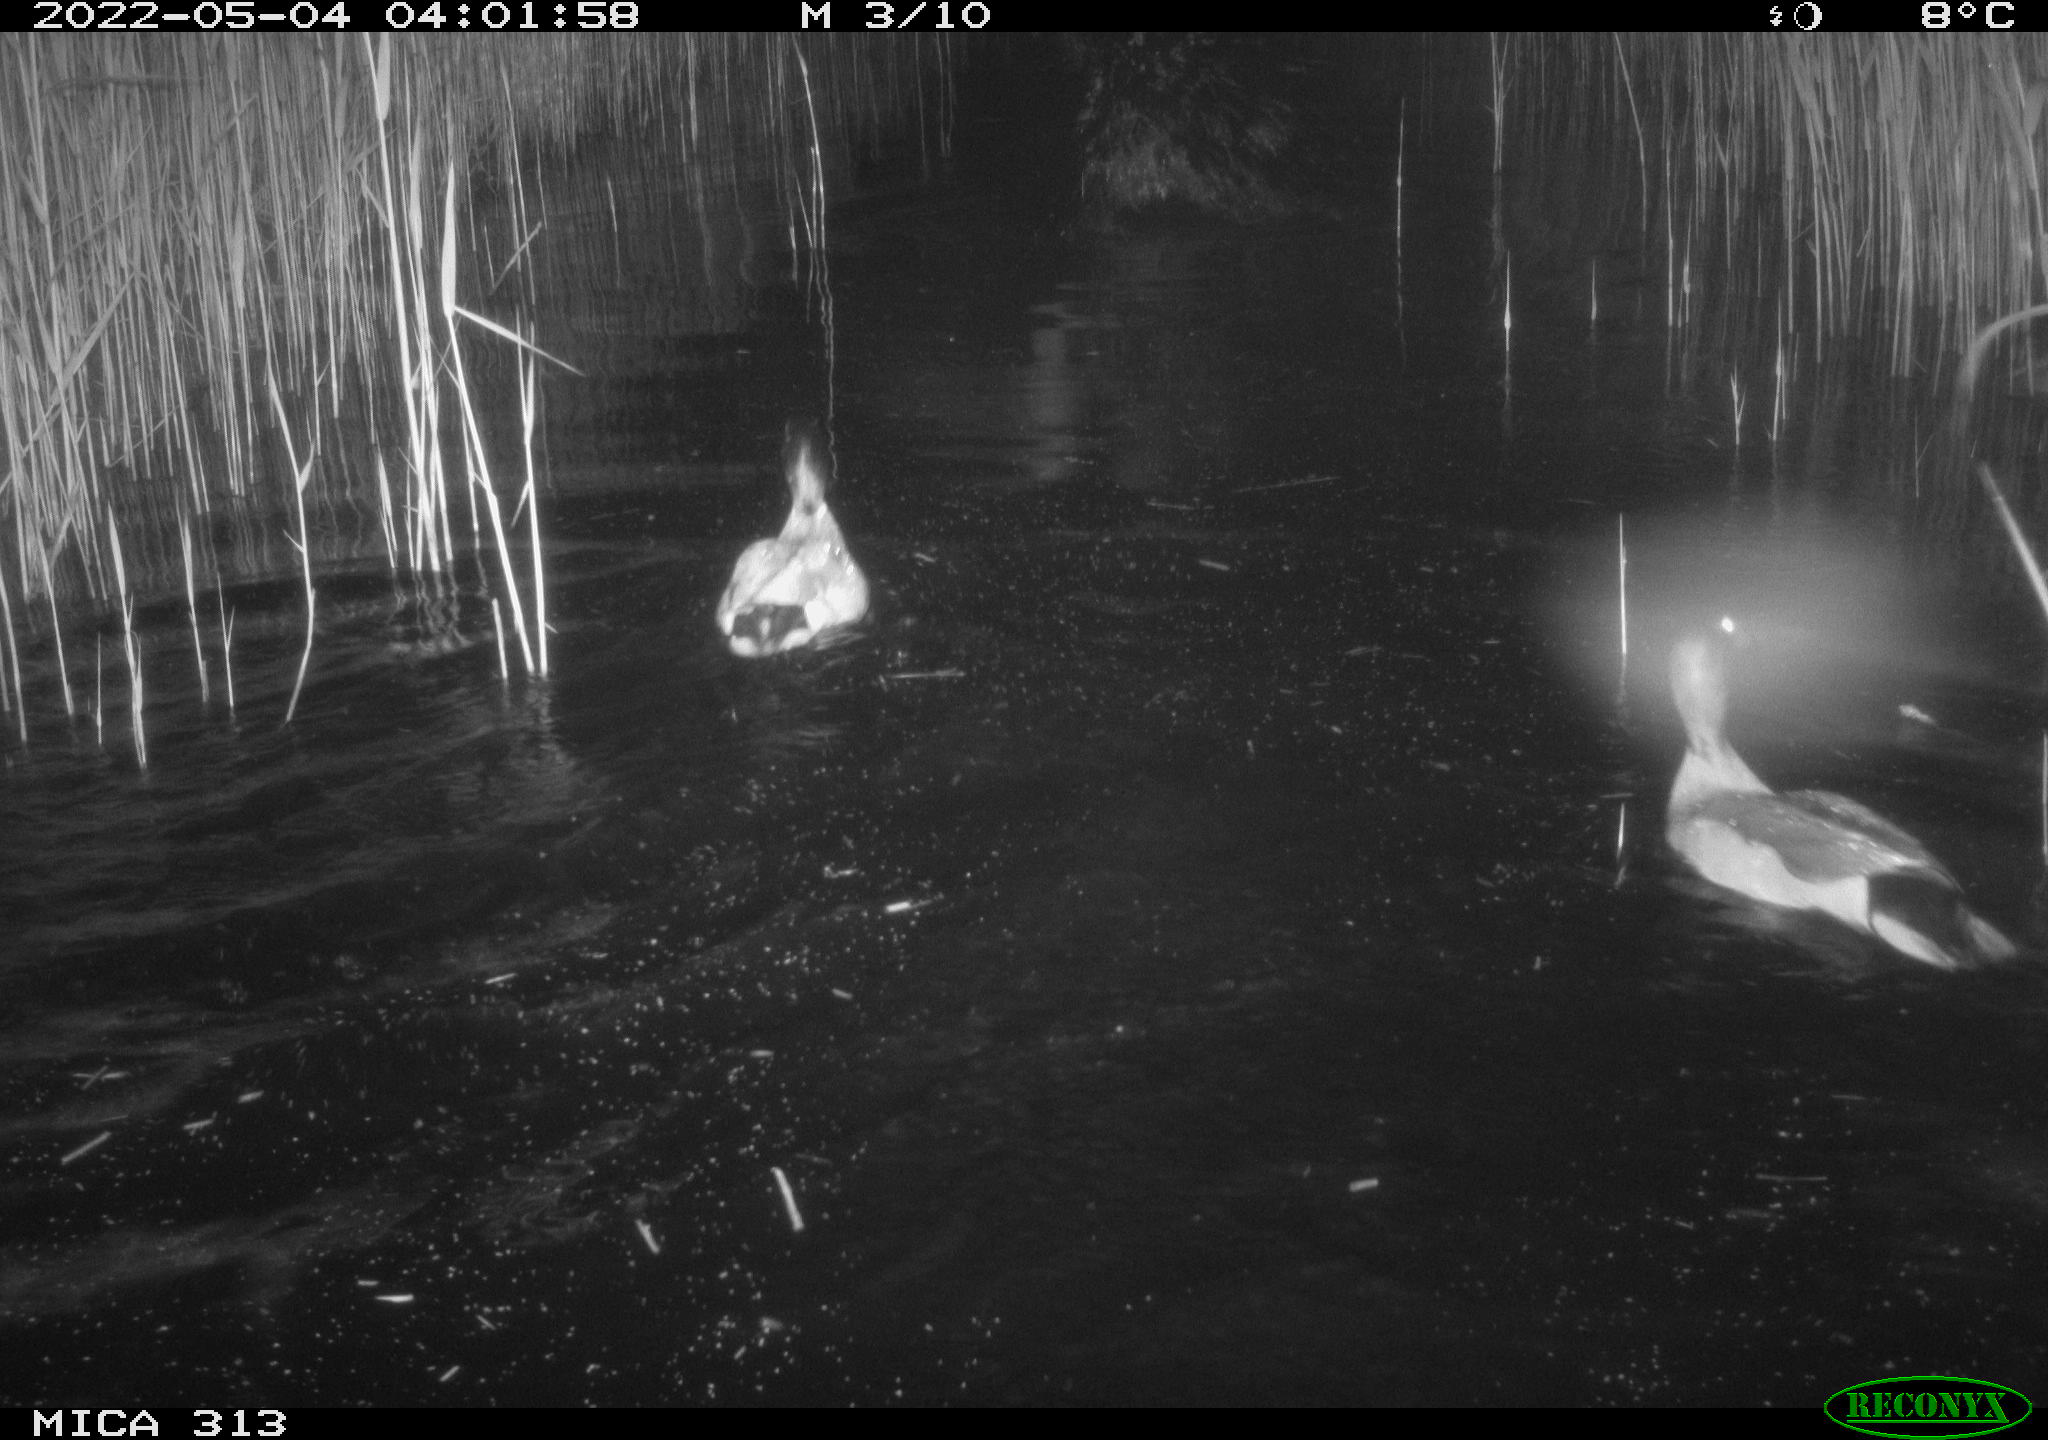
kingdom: Animalia
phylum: Chordata
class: Aves
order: Anseriformes
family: Anatidae
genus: Anas
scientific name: Anas platyrhynchos
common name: Mallard
